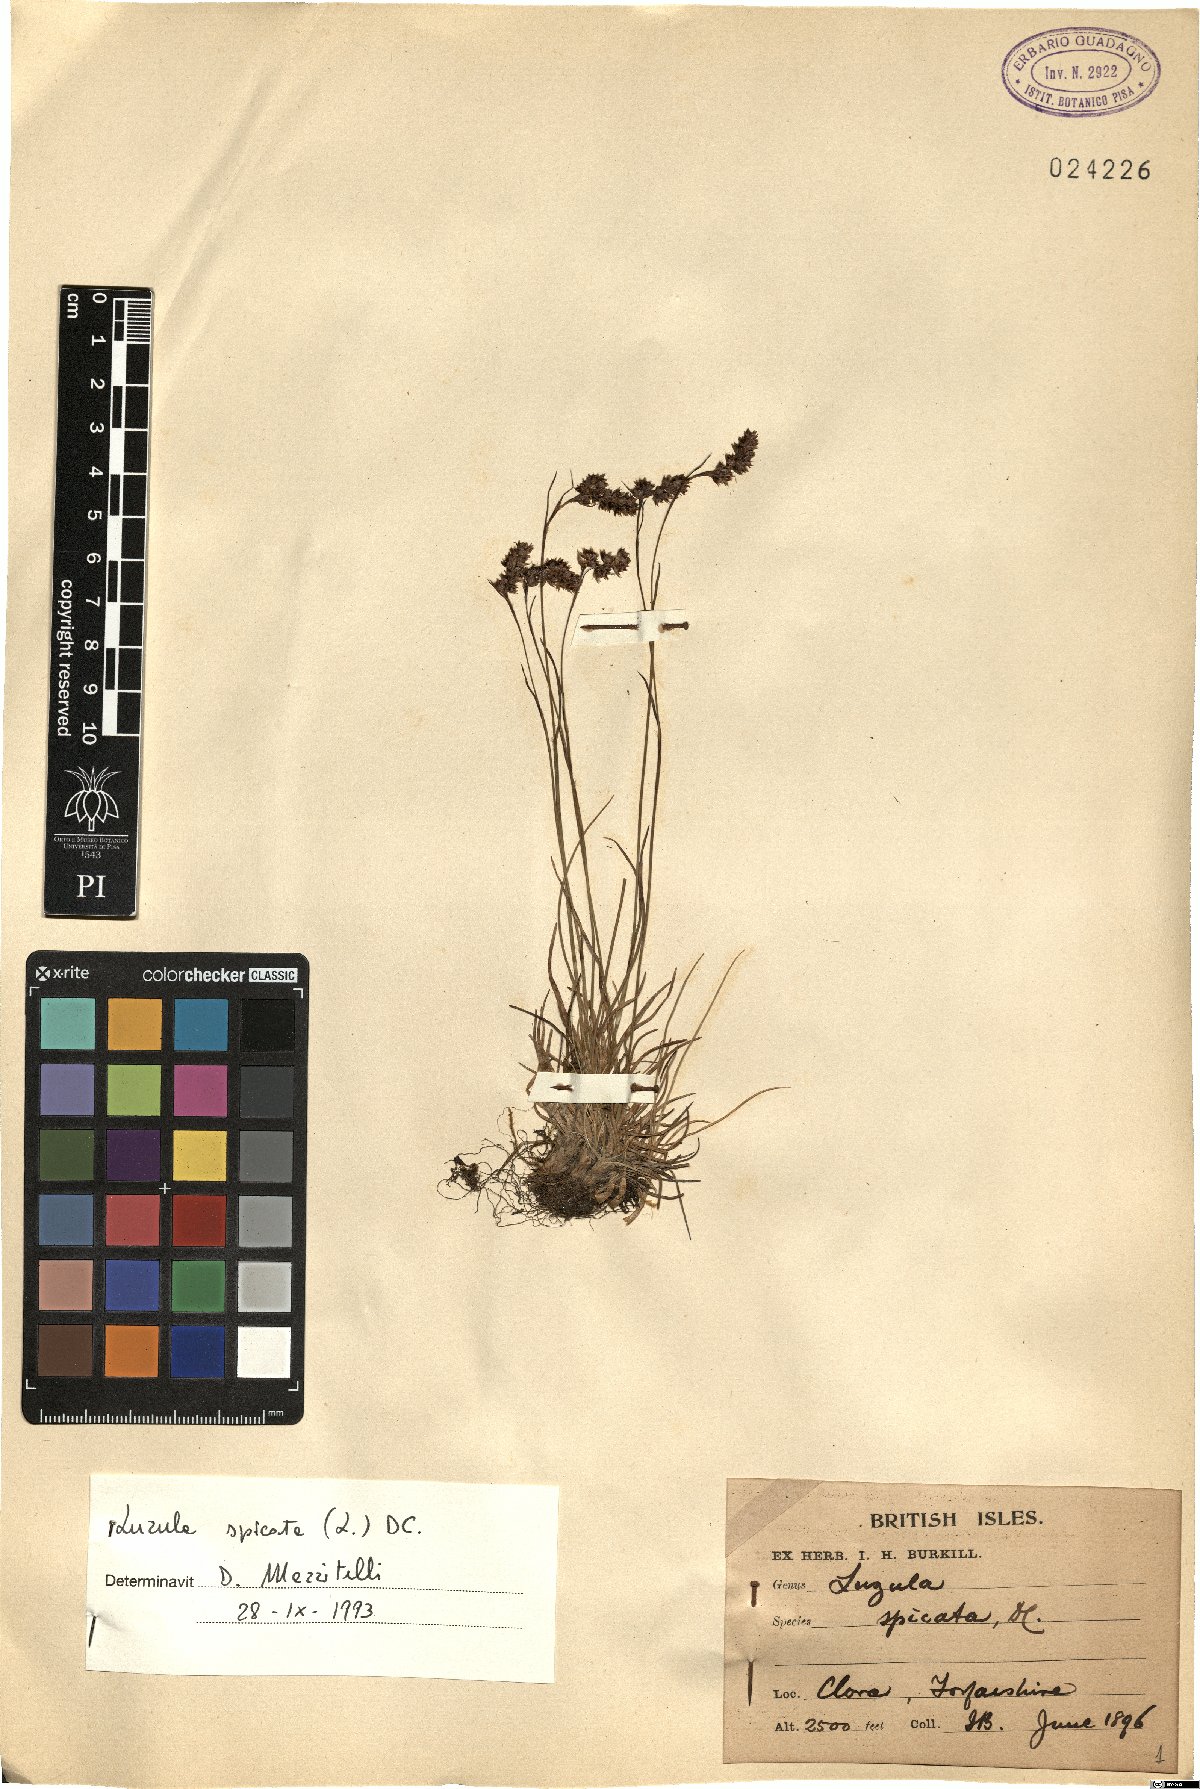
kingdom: Plantae
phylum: Tracheophyta
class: Liliopsida
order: Poales
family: Juncaceae
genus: Luzula
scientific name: Luzula spicata
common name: Spiked wood-rush
